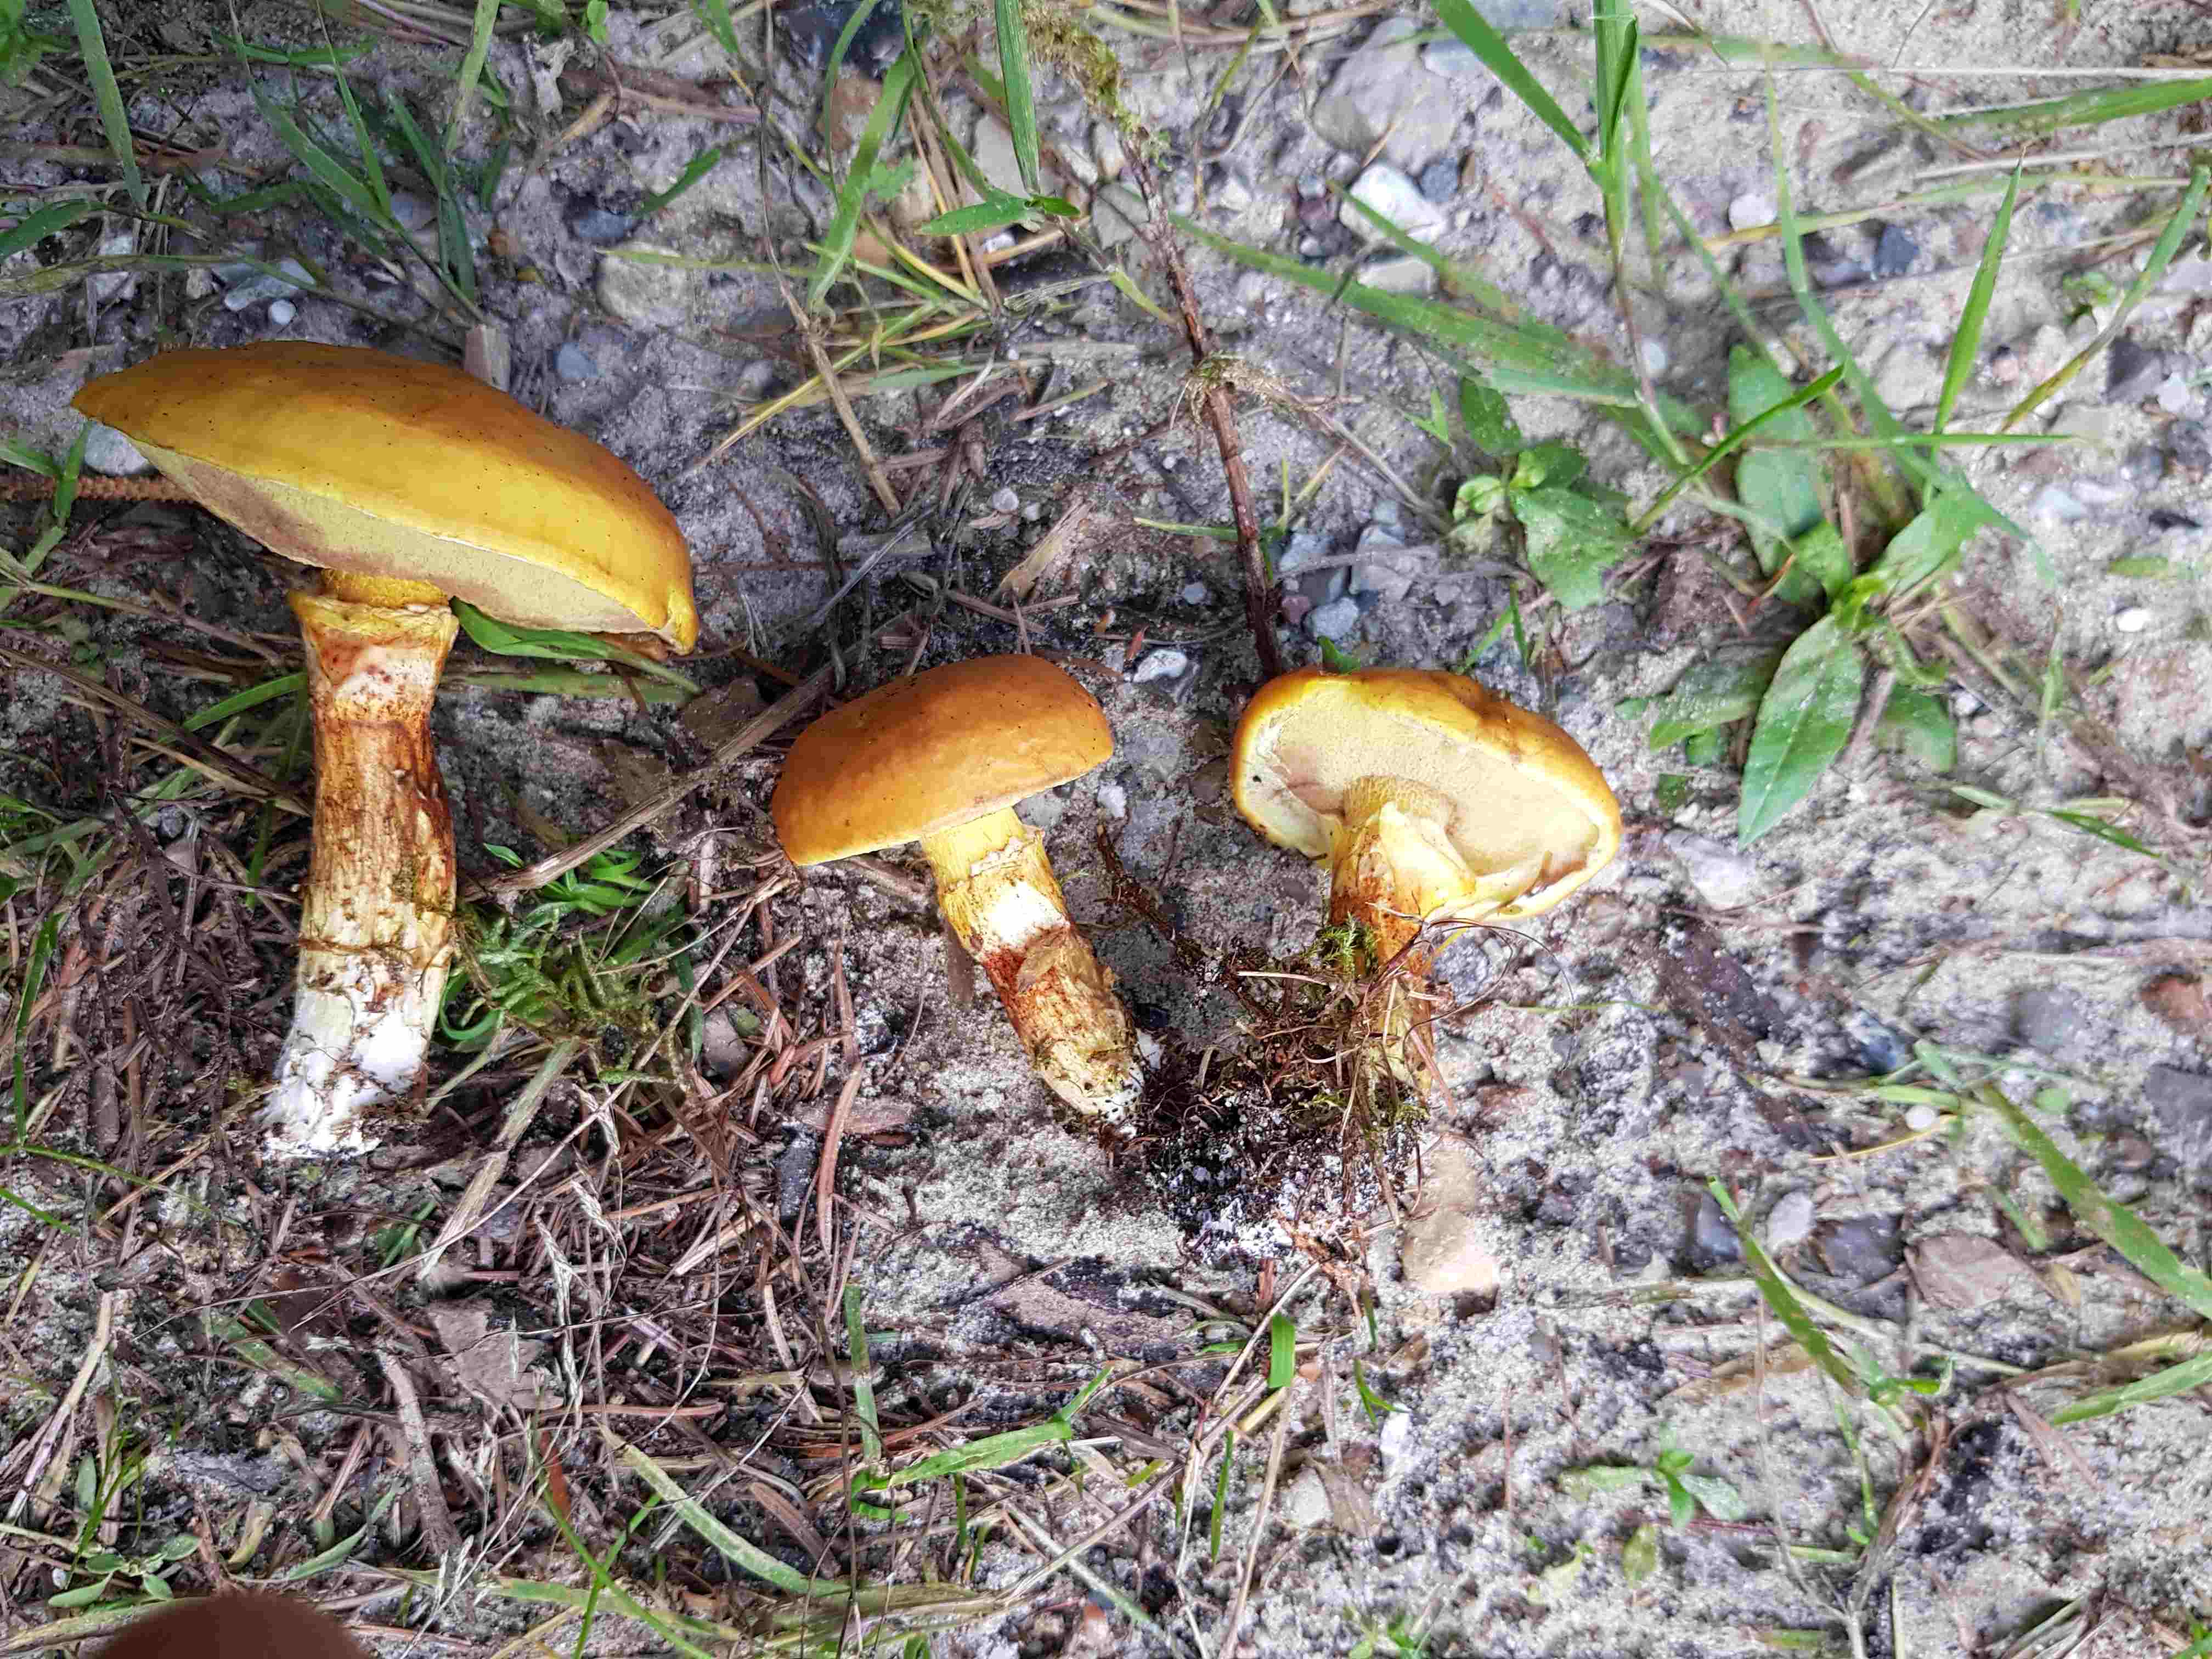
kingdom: Fungi
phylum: Basidiomycota
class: Agaricomycetes
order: Boletales
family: Suillaceae
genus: Suillus
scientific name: Suillus grevillei
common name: lærke-slimrørhat
